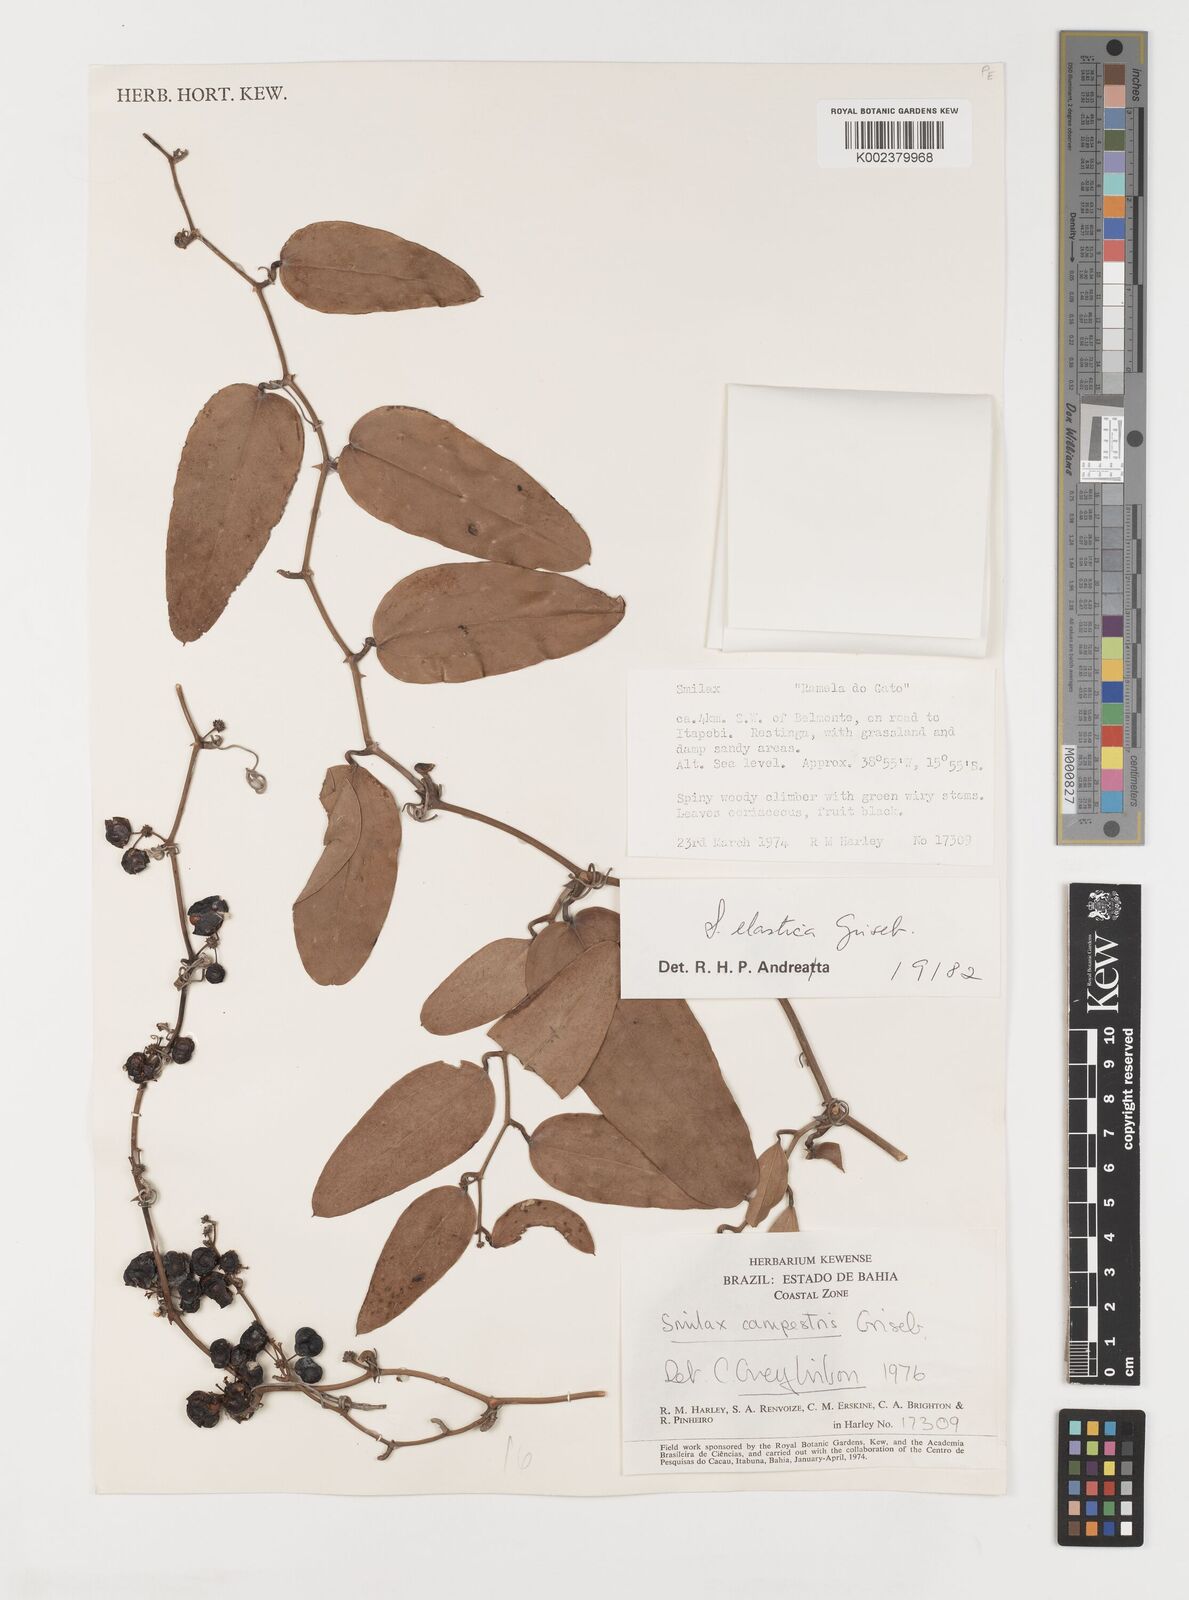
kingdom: Plantae
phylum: Tracheophyta
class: Liliopsida
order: Liliales
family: Smilacaceae
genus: Smilax
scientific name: Smilax elastica
